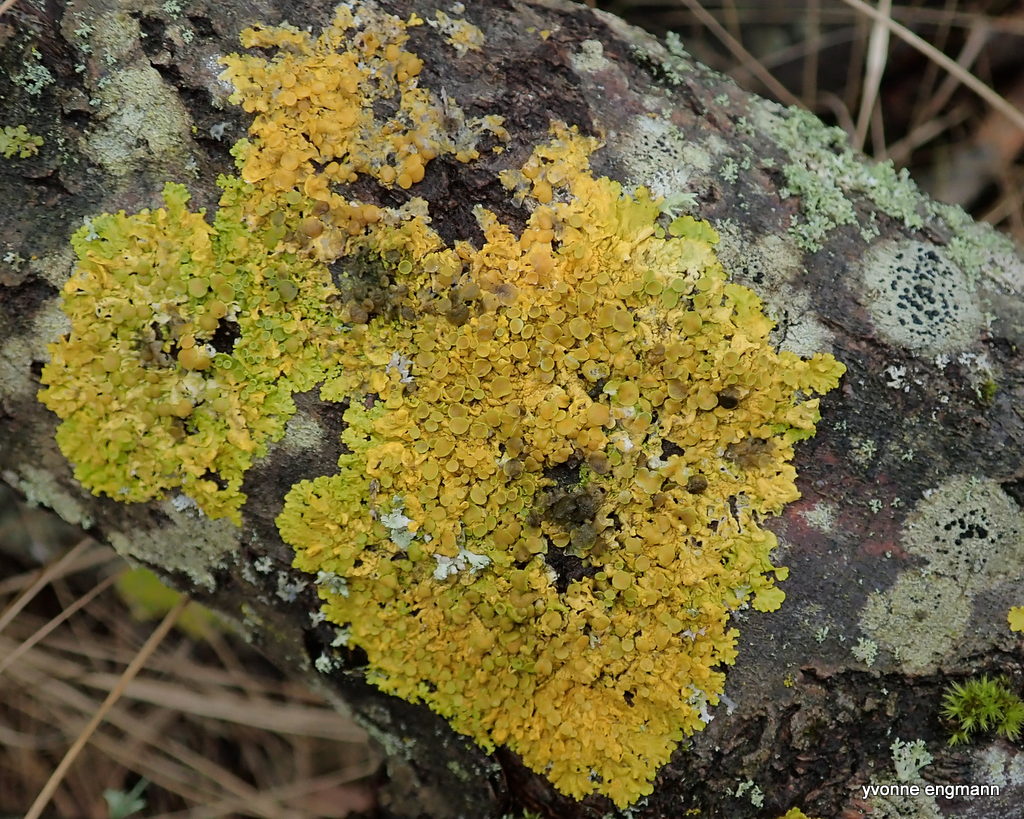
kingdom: Fungi
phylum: Ascomycota
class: Lecanoromycetes
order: Teloschistales
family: Teloschistaceae
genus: Xanthoria
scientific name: Xanthoria parietina
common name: almindelig væggelav
